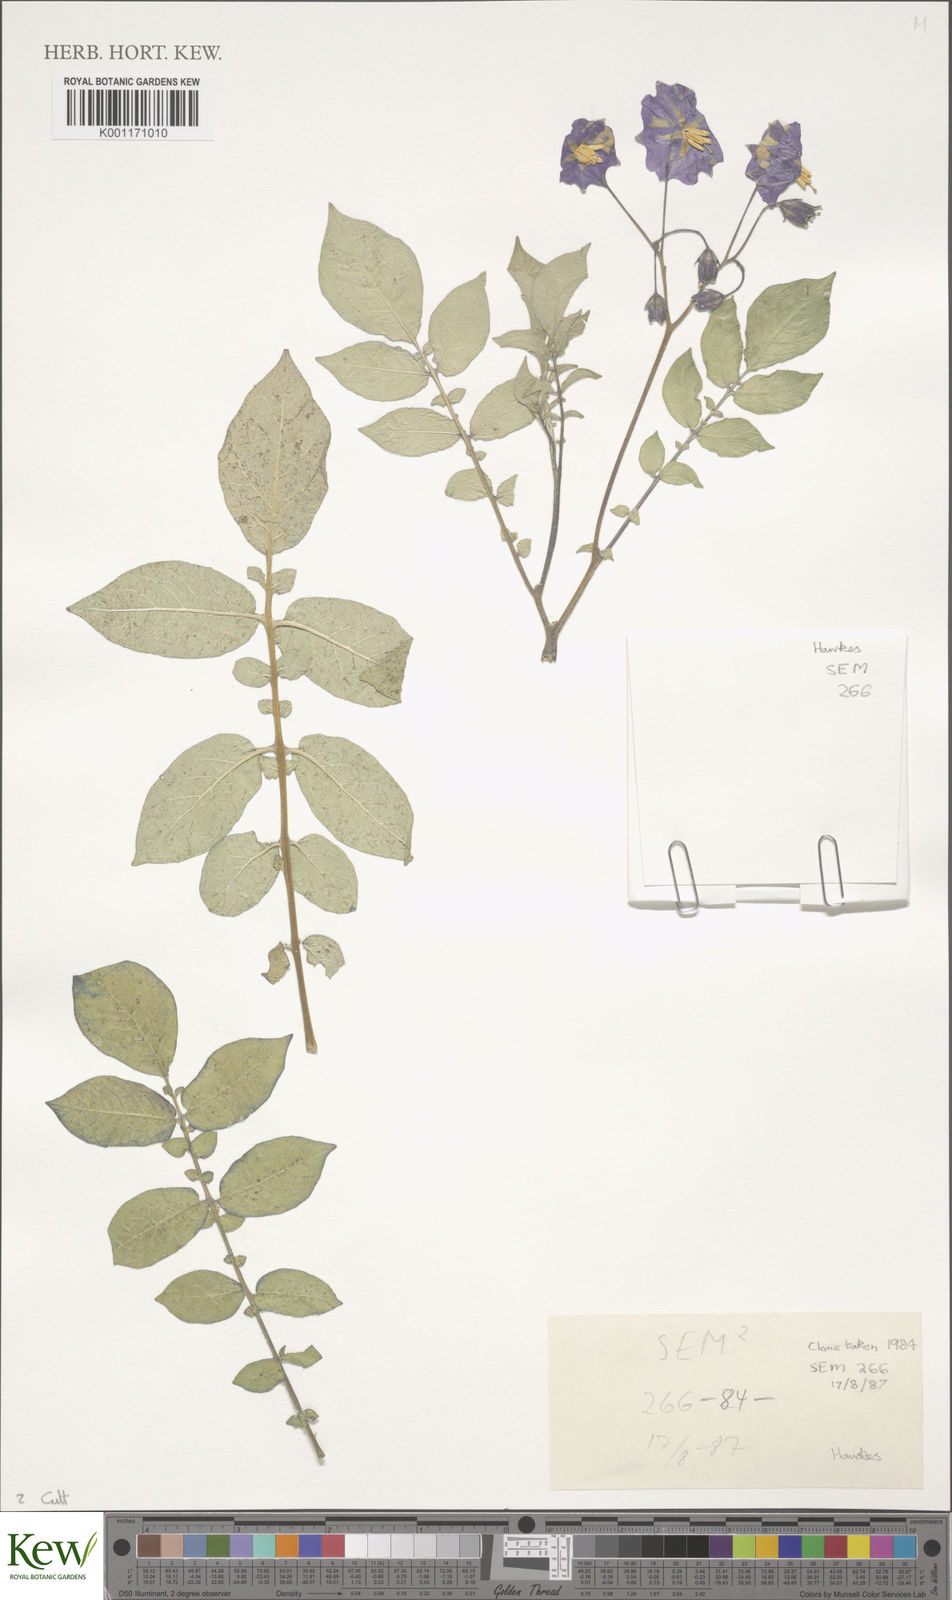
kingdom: Plantae
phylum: Tracheophyta
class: Magnoliopsida
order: Solanales
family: Solanaceae
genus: Solanum
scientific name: Solanum
